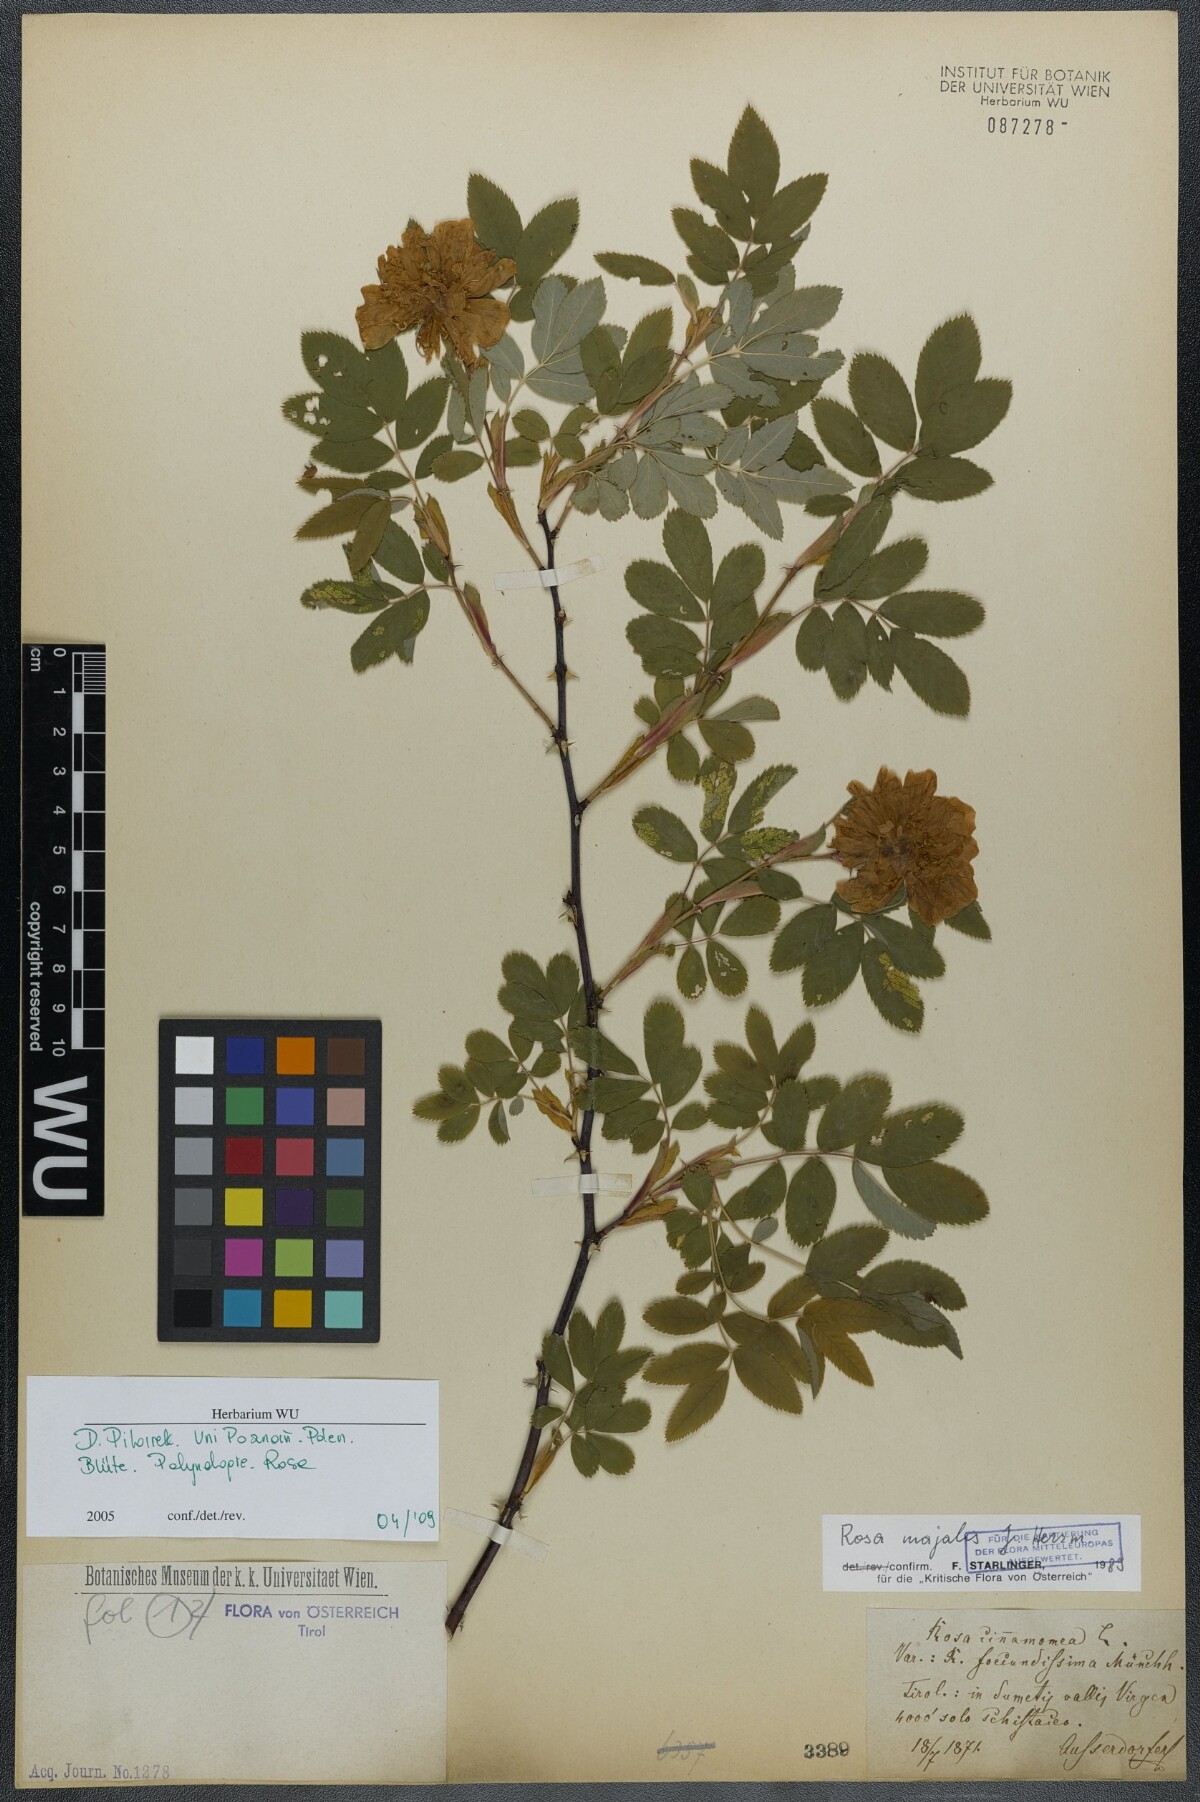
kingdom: Plantae
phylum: Tracheophyta
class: Magnoliopsida
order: Rosales
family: Rosaceae
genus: Rosa
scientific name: Rosa majalis
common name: Cinnamon rose
